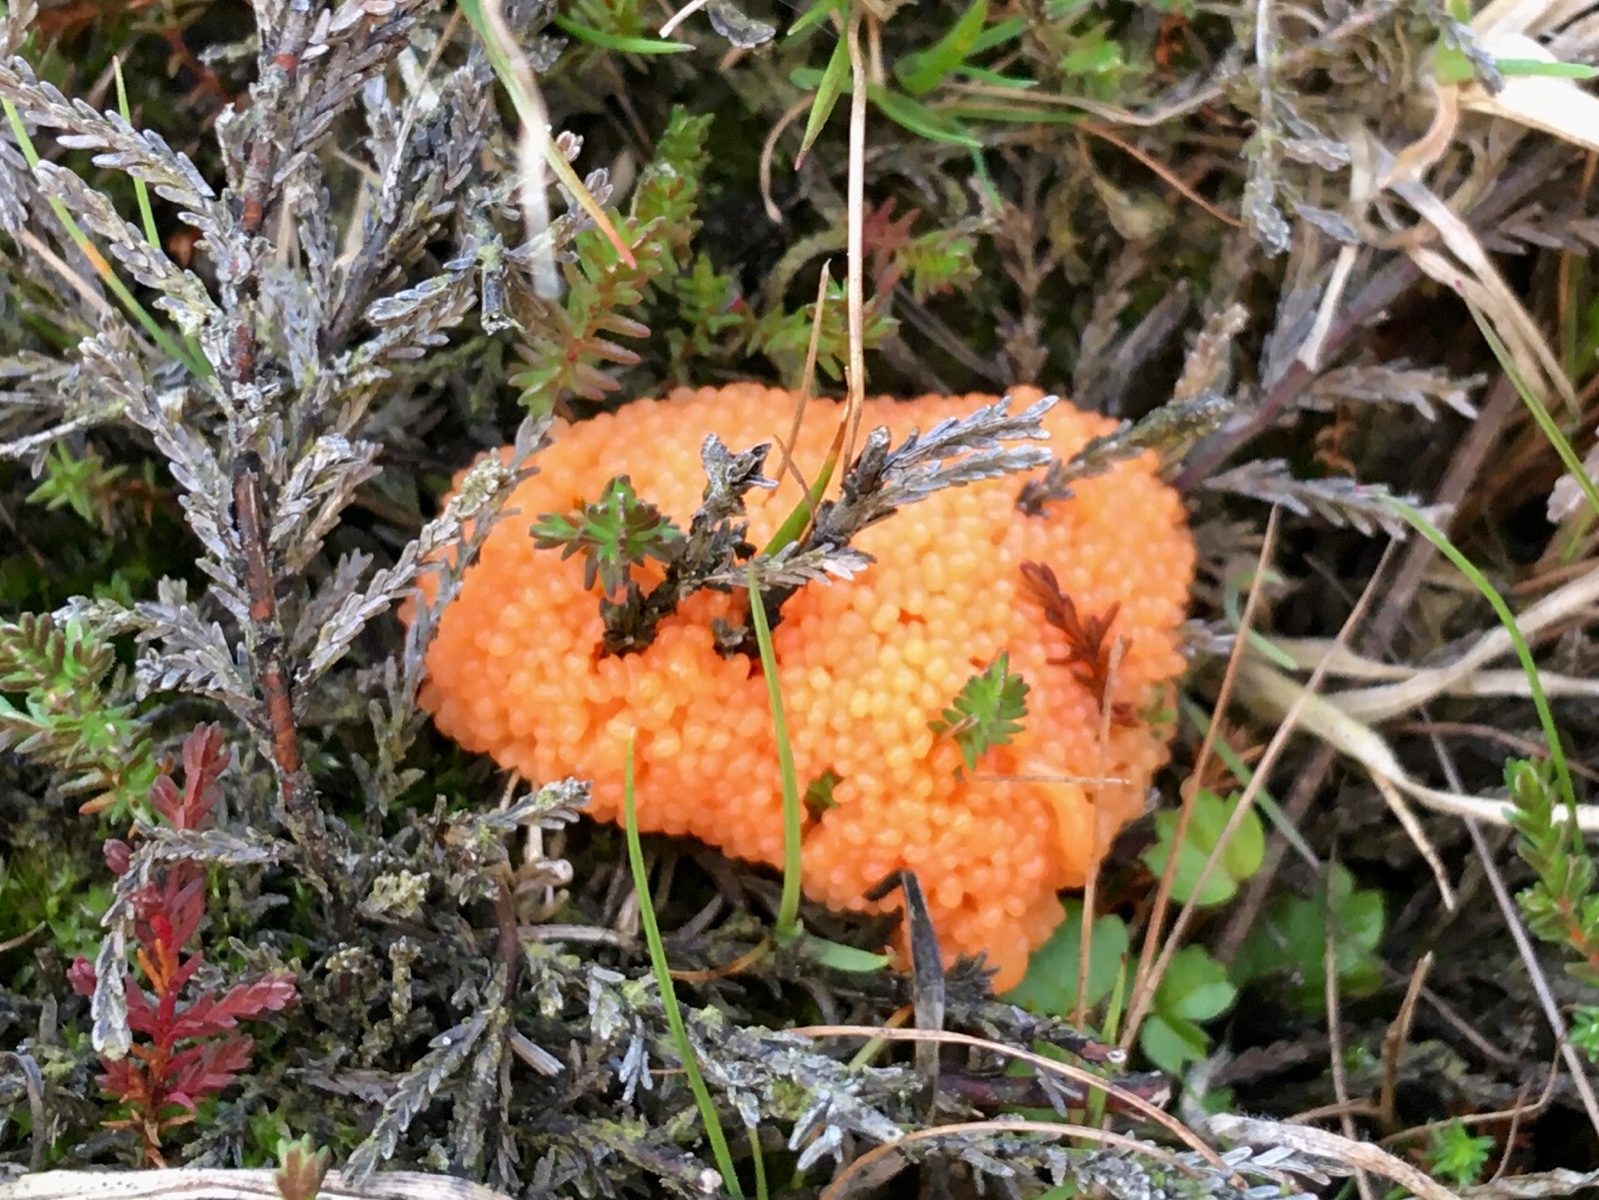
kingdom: Protozoa
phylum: Mycetozoa
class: Myxomycetes
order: Cribrariales
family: Tubiferaceae
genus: Tubifera
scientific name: Tubifera ferruginosa
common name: kanel-støvrør
